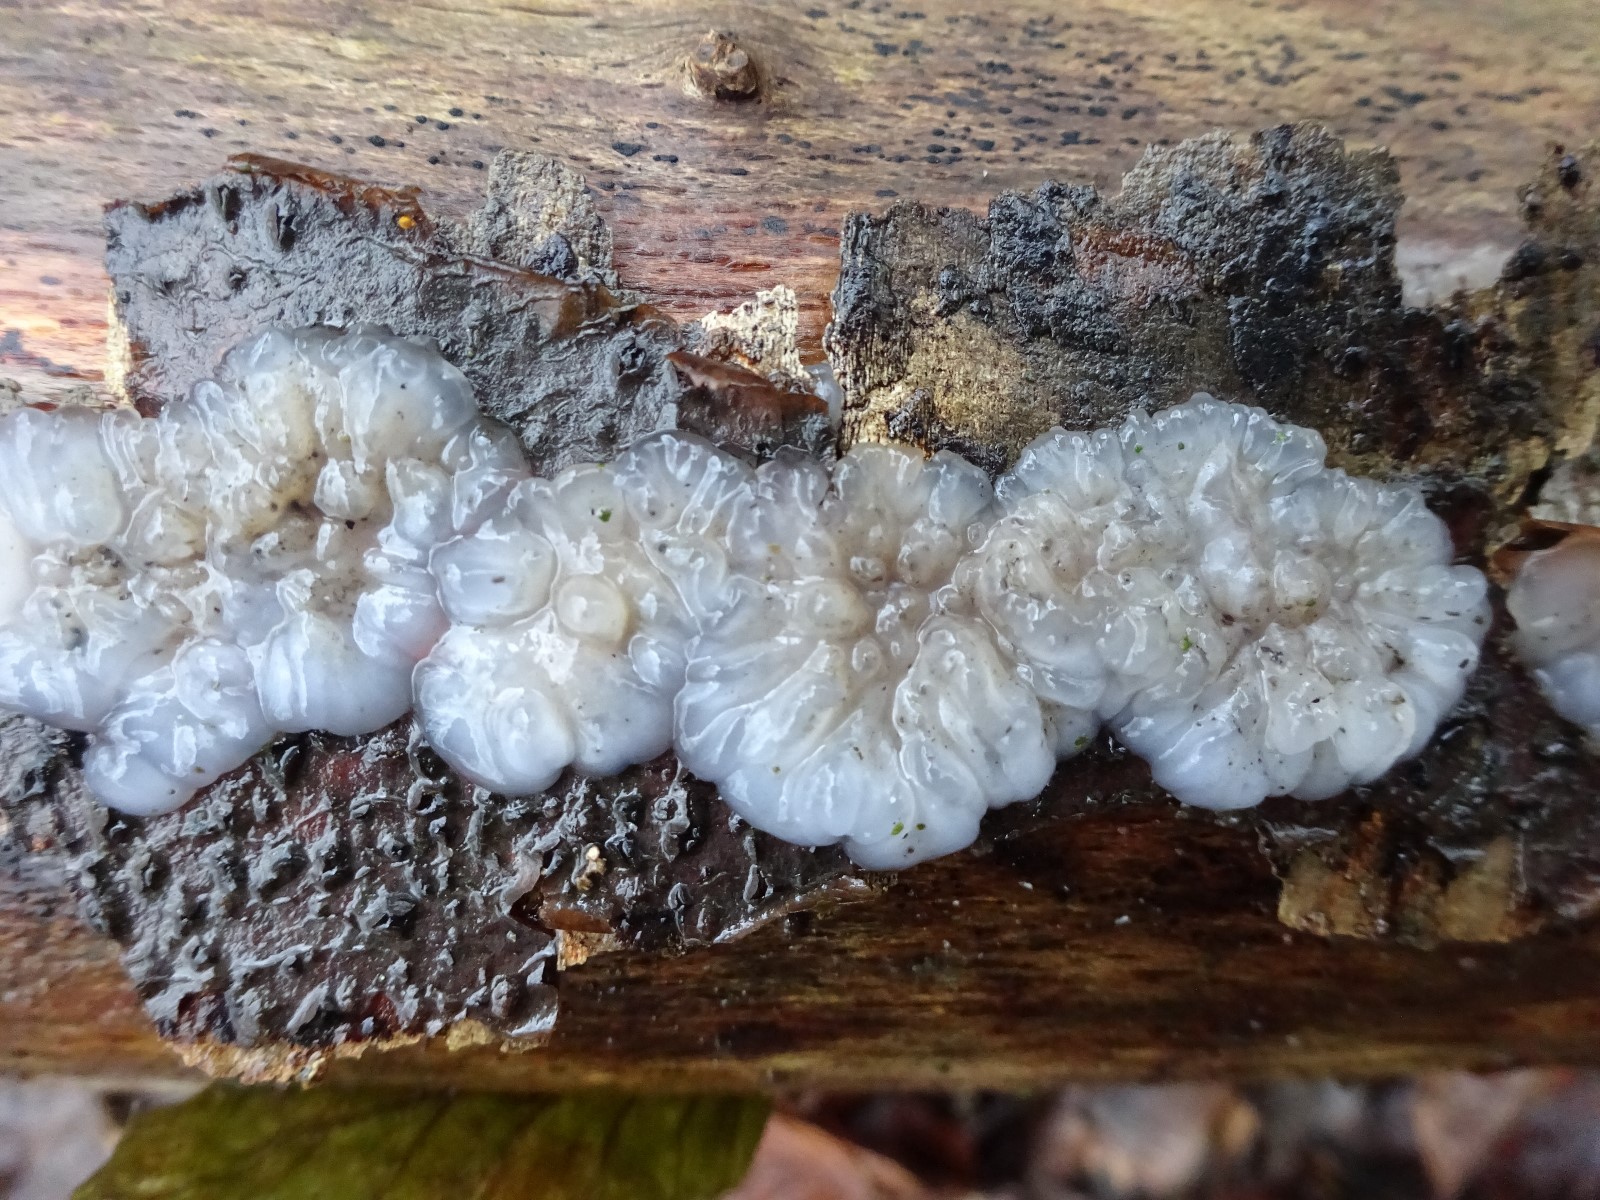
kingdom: Fungi
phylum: Basidiomycota
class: Agaricomycetes
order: Auriculariales
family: Auriculariaceae
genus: Exidia
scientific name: Exidia thuretiana
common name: hvidlig bævretop
